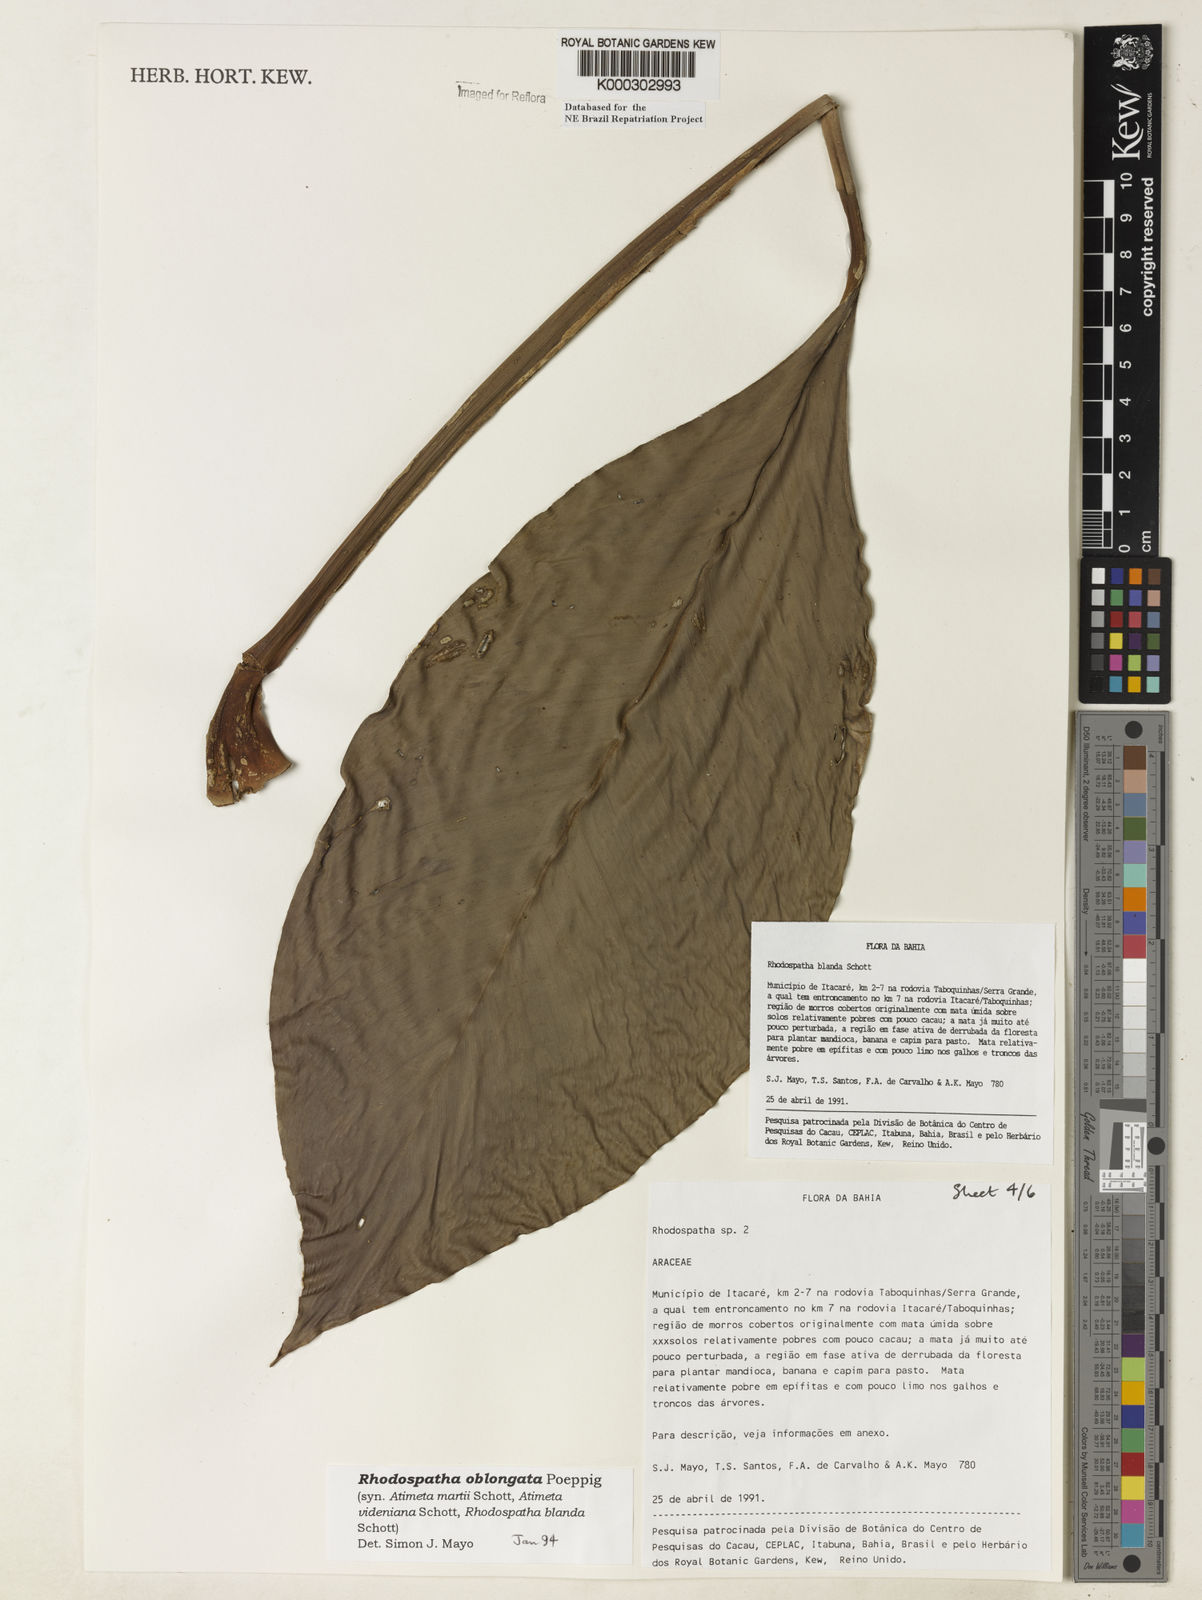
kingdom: Plantae
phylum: Tracheophyta
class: Liliopsida
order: Alismatales
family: Araceae
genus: Rhodospatha
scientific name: Rhodospatha oblongata
